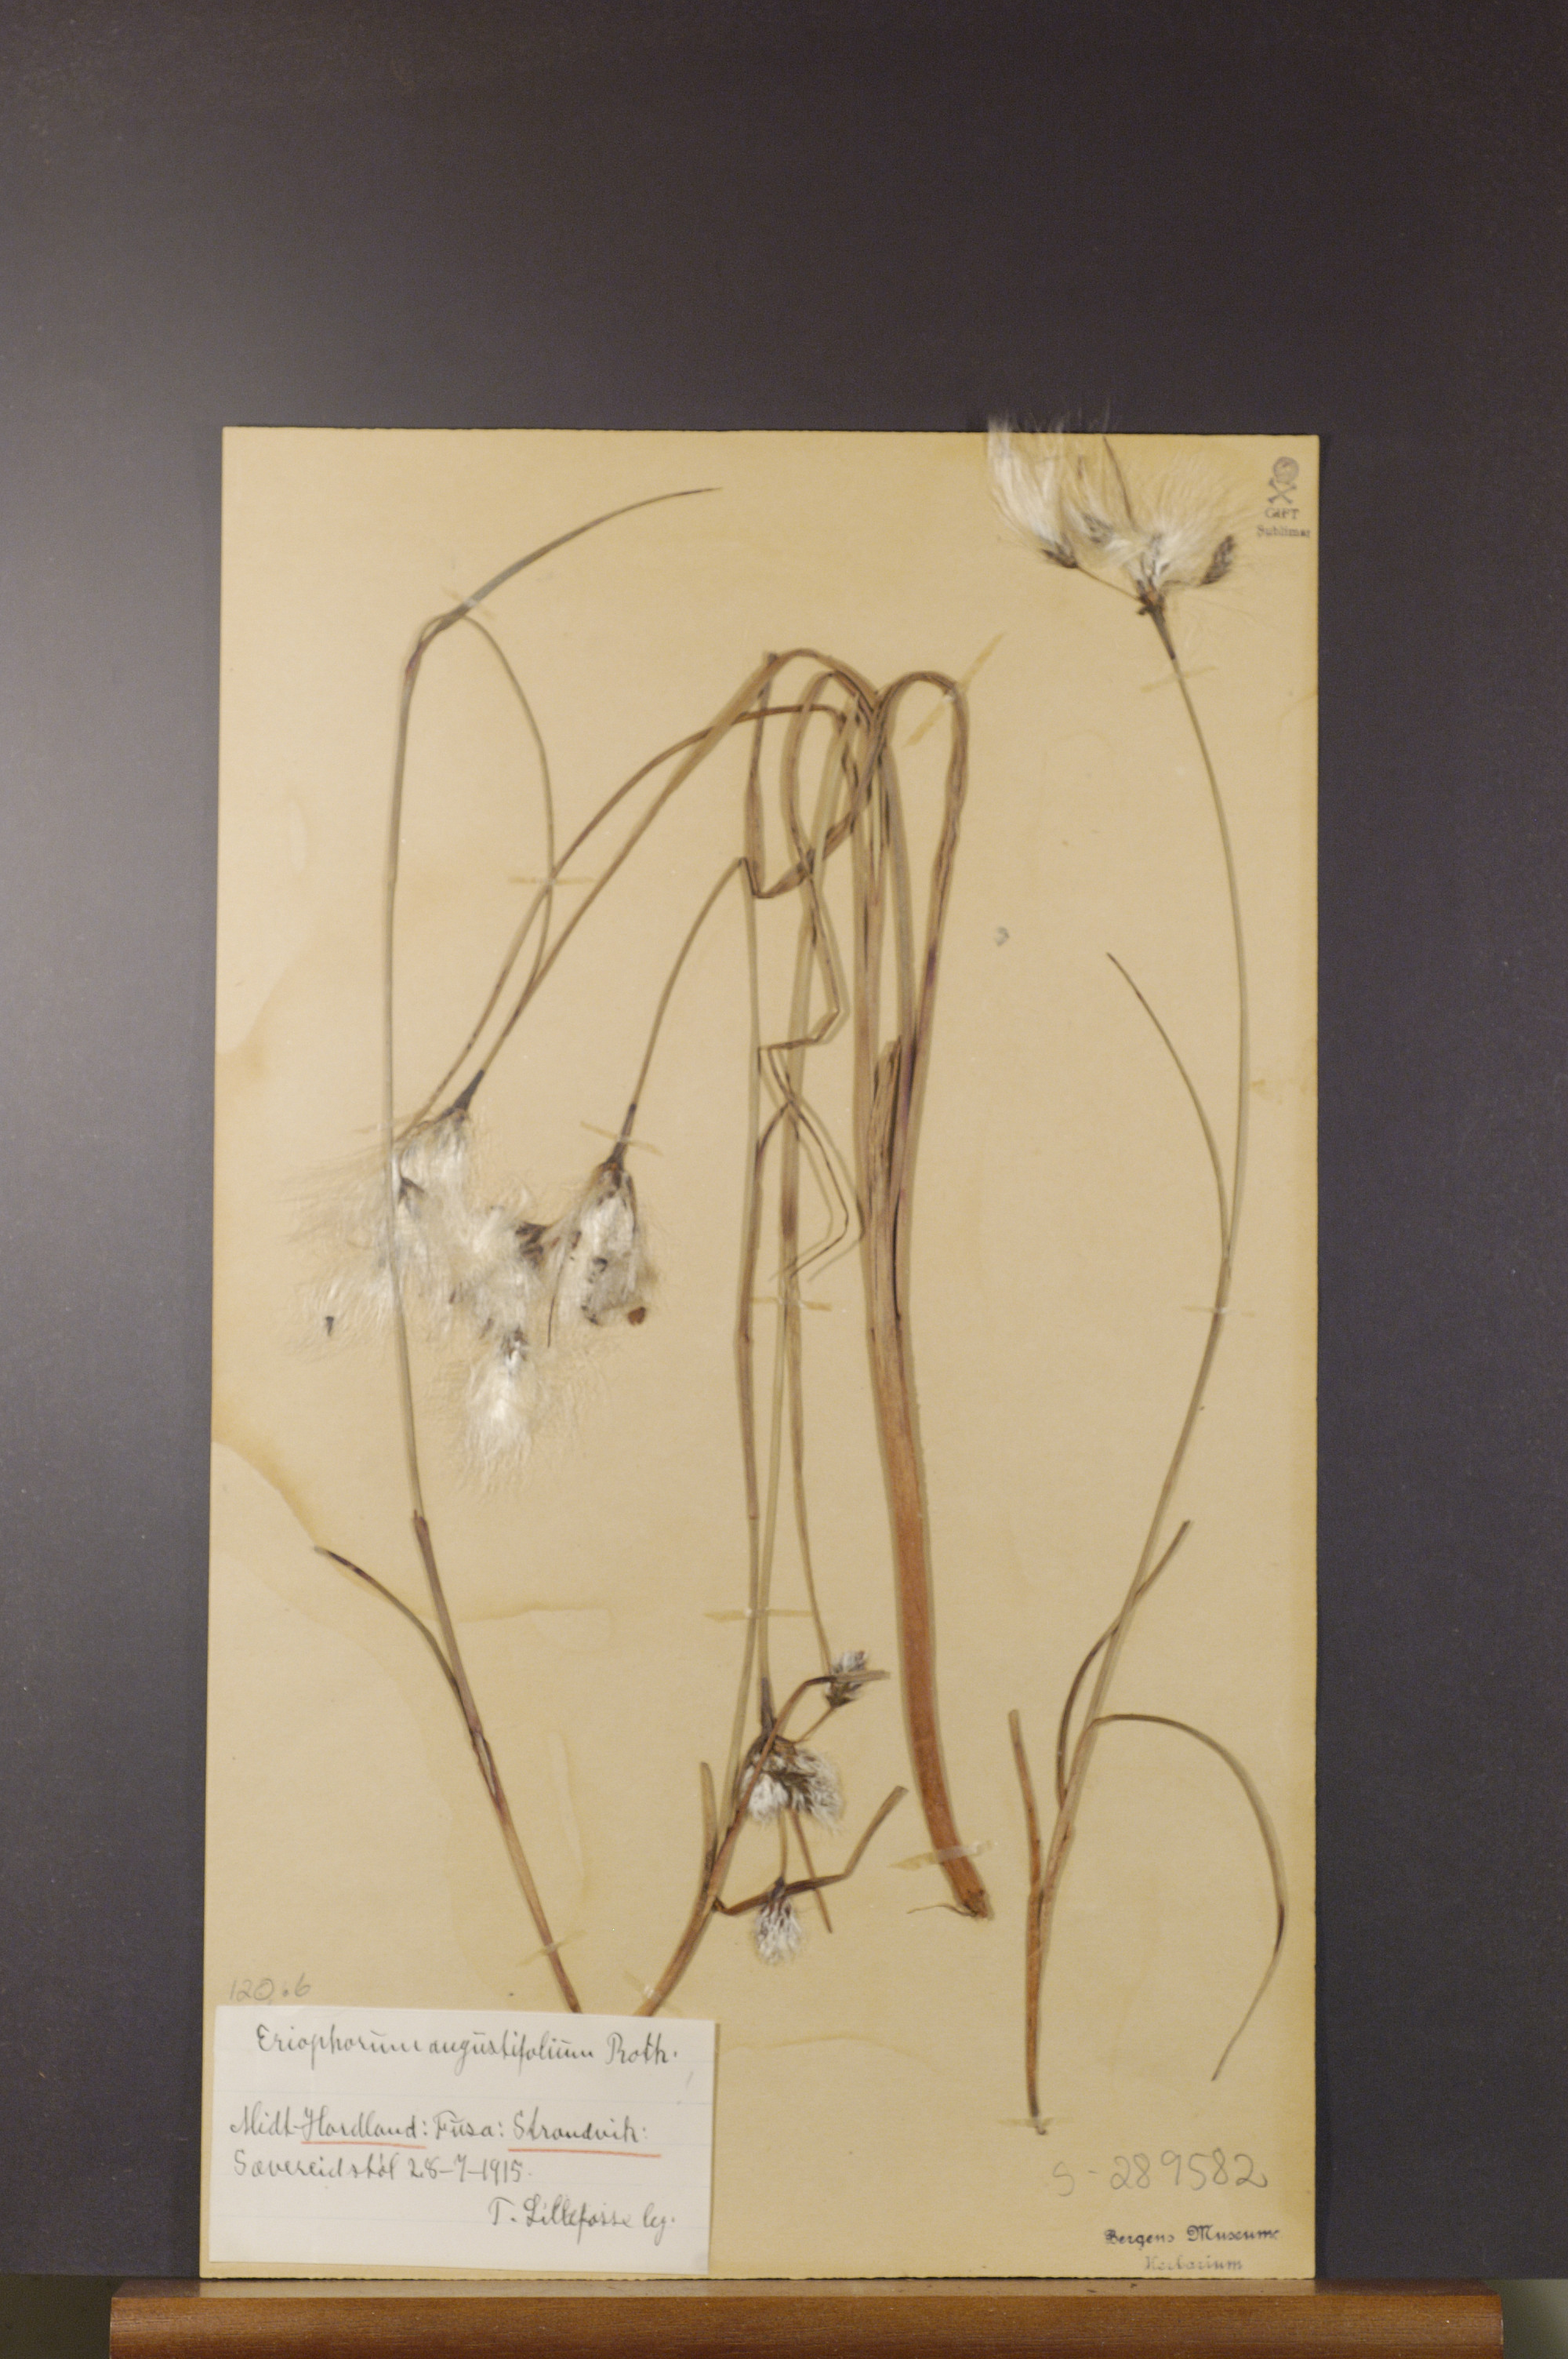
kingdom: Plantae
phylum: Tracheophyta
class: Liliopsida
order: Poales
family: Cyperaceae
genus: Eriophorum
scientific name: Eriophorum angustifolium
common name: Common cottongrass
